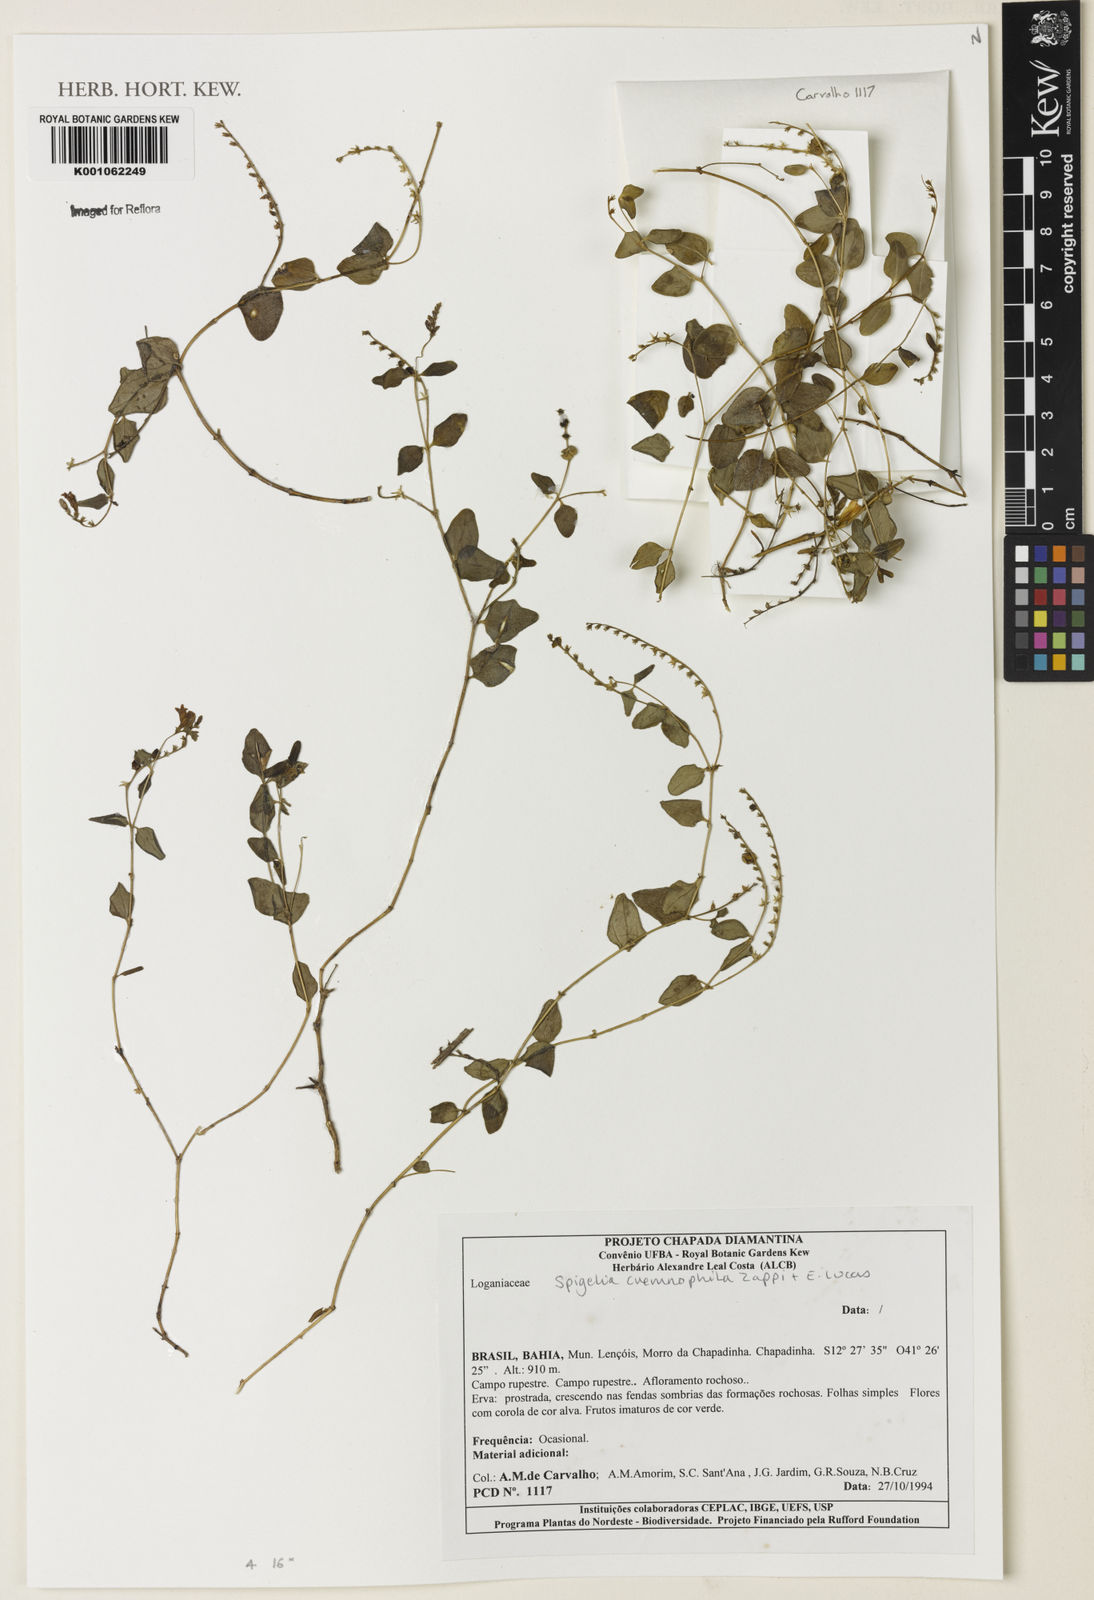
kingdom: Plantae
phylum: Tracheophyta
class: Magnoliopsida
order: Gentianales
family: Loganiaceae
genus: Spigelia
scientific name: Spigelia cremnophila
